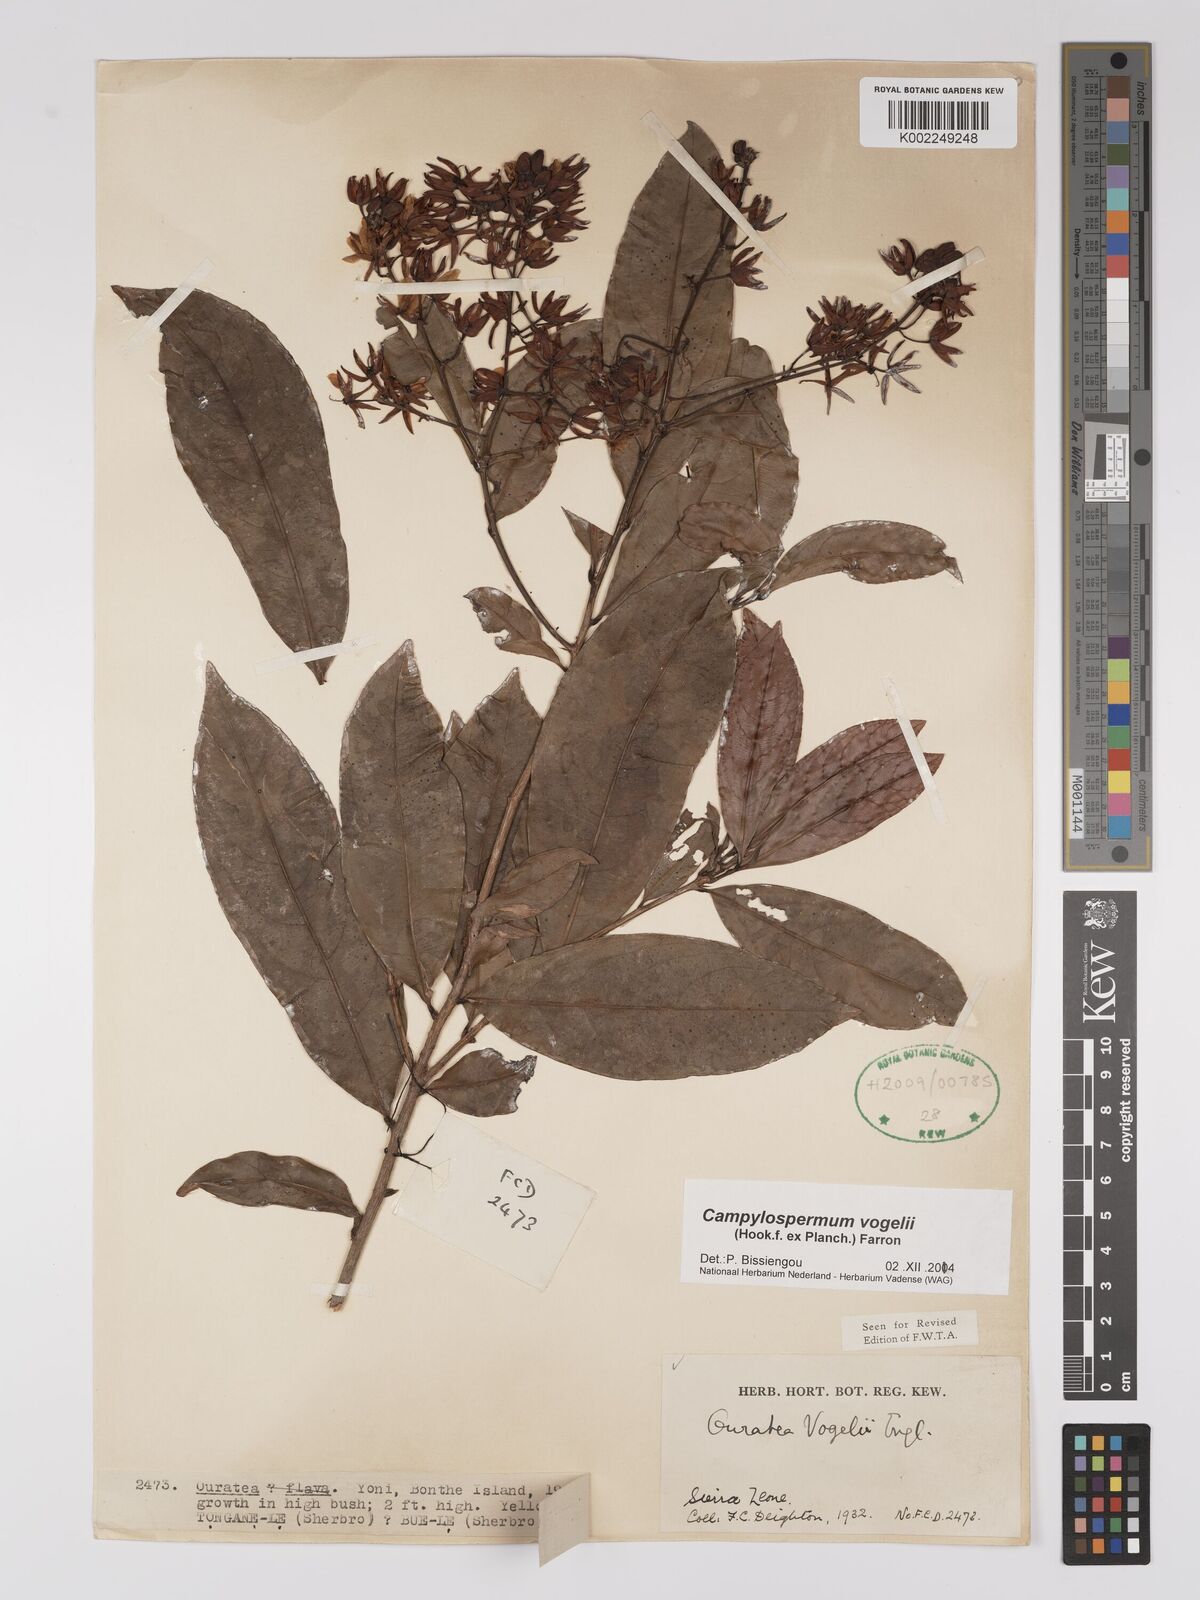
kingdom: Plantae
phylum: Tracheophyta
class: Magnoliopsida
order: Malpighiales
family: Ochnaceae
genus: Campylospermum
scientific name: Campylospermum vogelii
